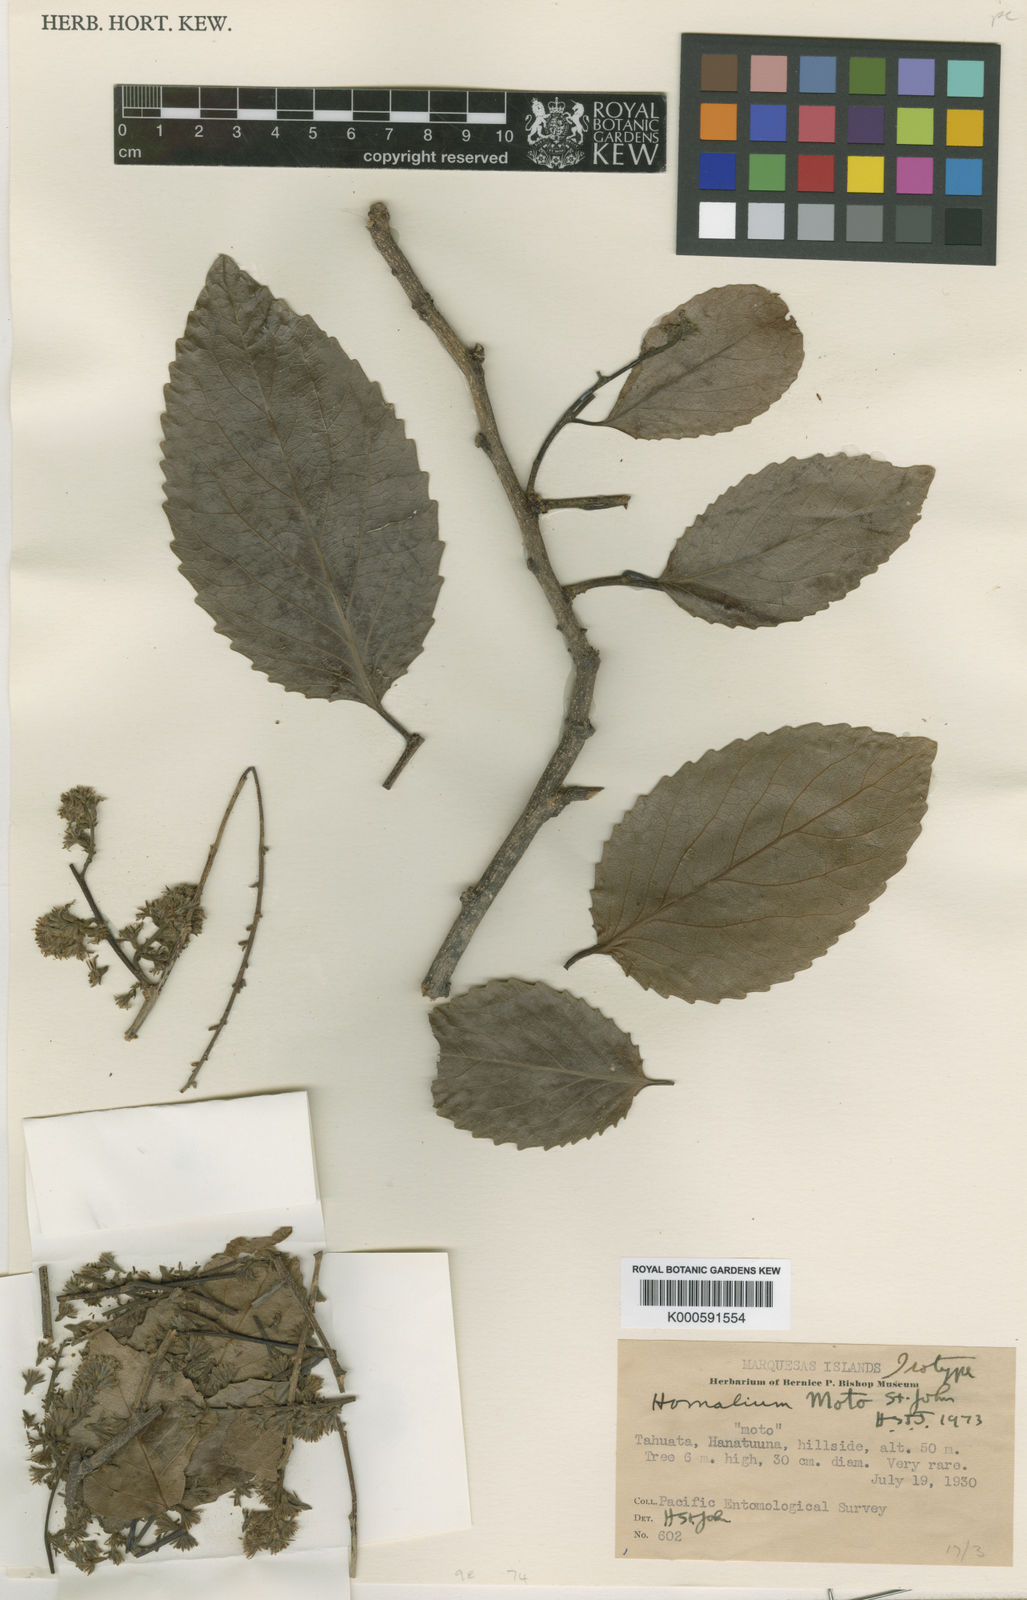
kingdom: Plantae
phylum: Tracheophyta
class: Magnoliopsida
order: Malpighiales
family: Salicaceae
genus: Homalium
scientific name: Homalium moto
